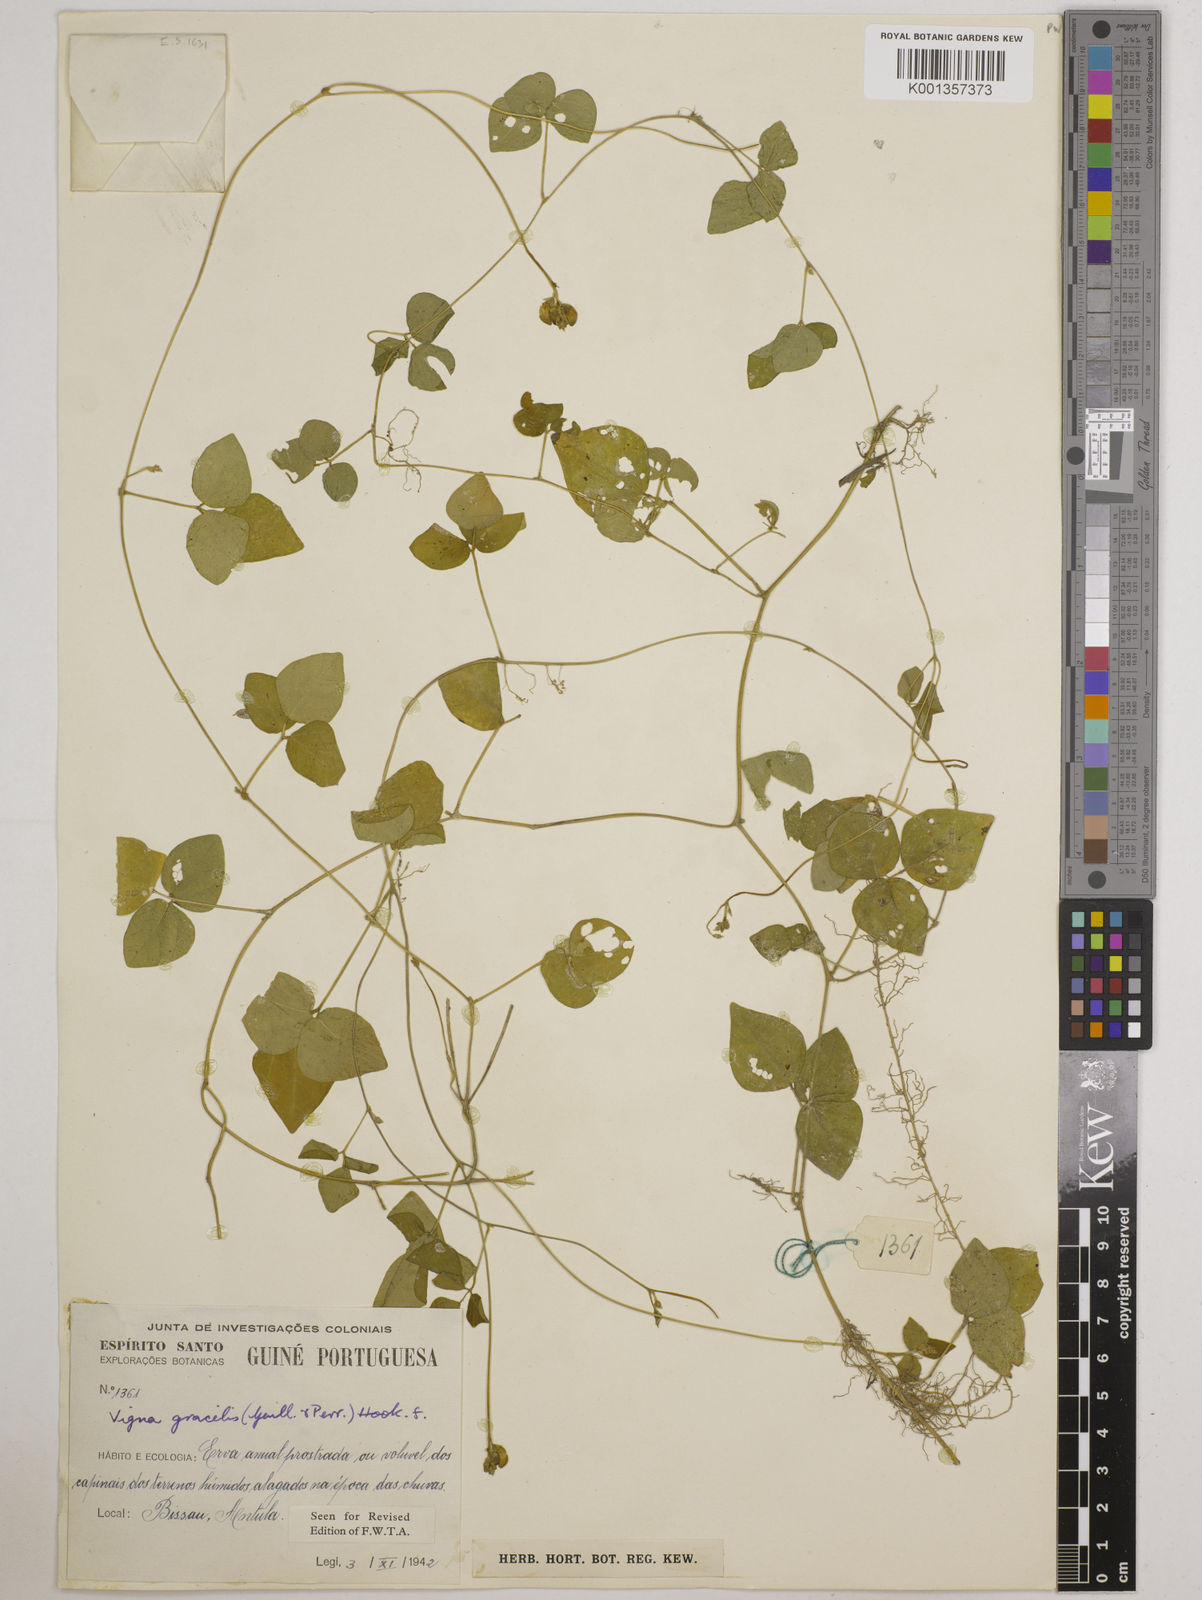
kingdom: Plantae
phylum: Tracheophyta
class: Magnoliopsida
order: Fabales
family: Fabaceae
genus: Vigna
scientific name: Vigna gracilis
